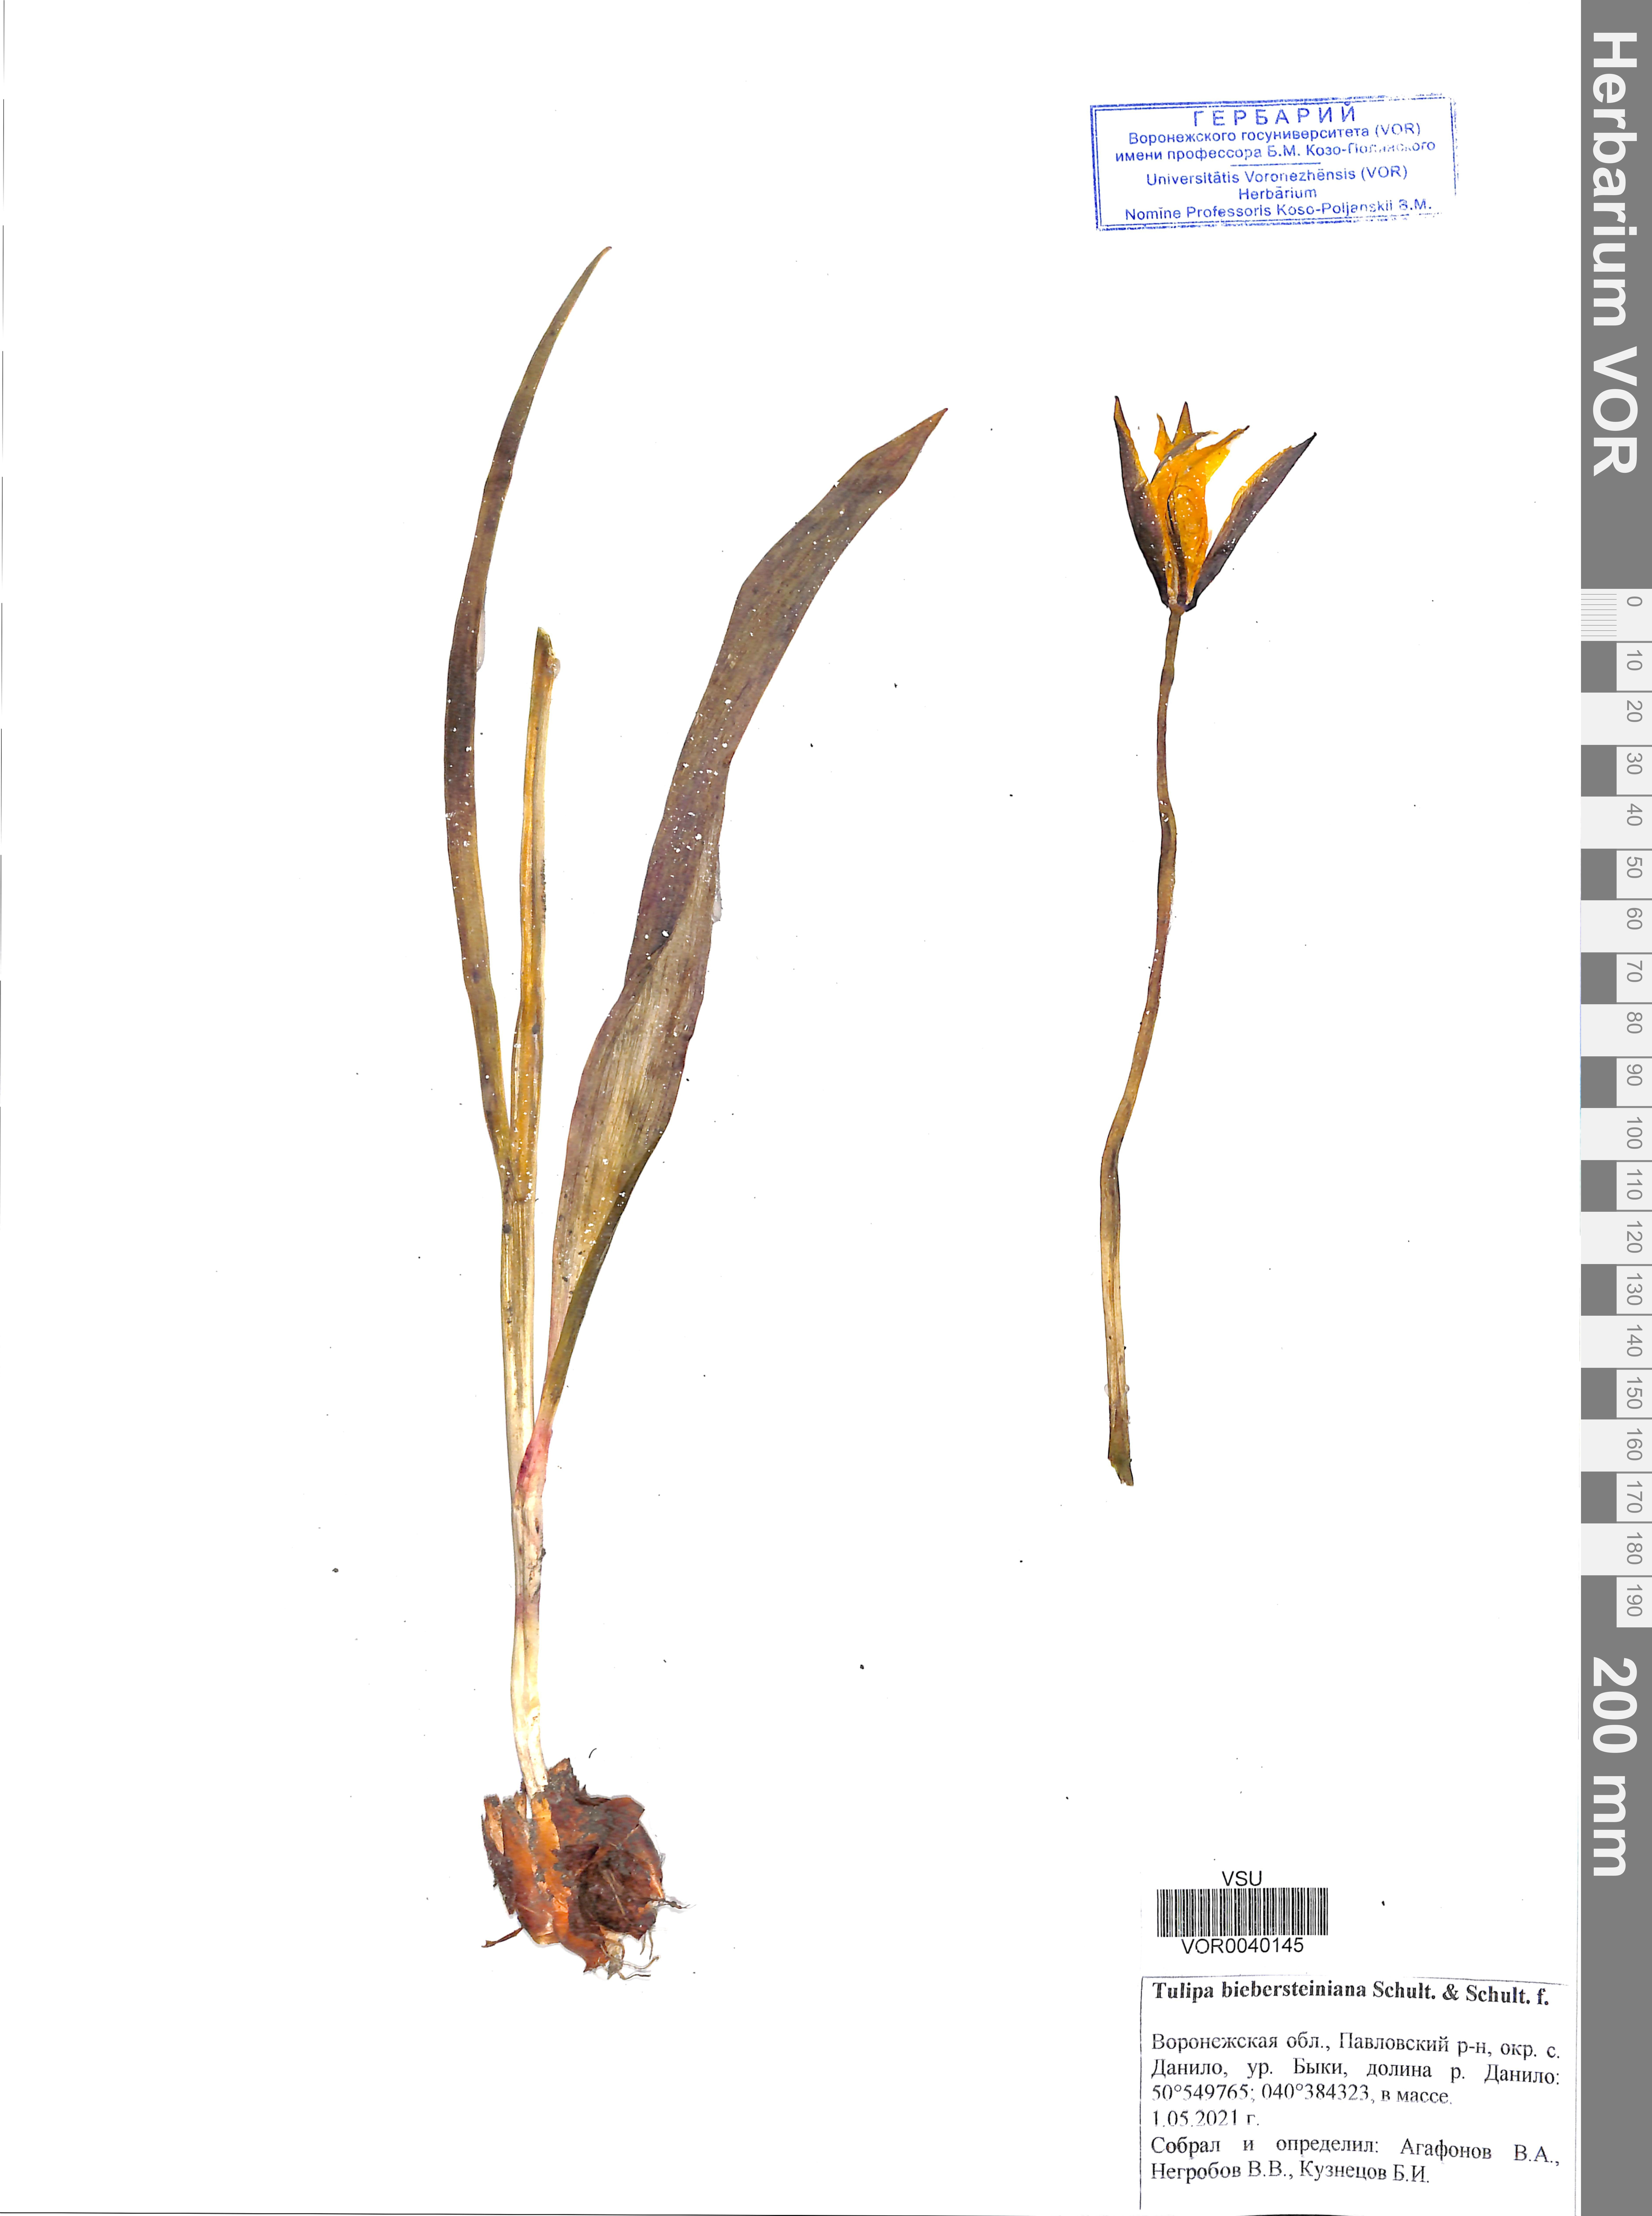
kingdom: Plantae
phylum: Tracheophyta
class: Liliopsida
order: Liliales
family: Liliaceae
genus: Tulipa
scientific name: Tulipa sylvestris
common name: Wild tulip
